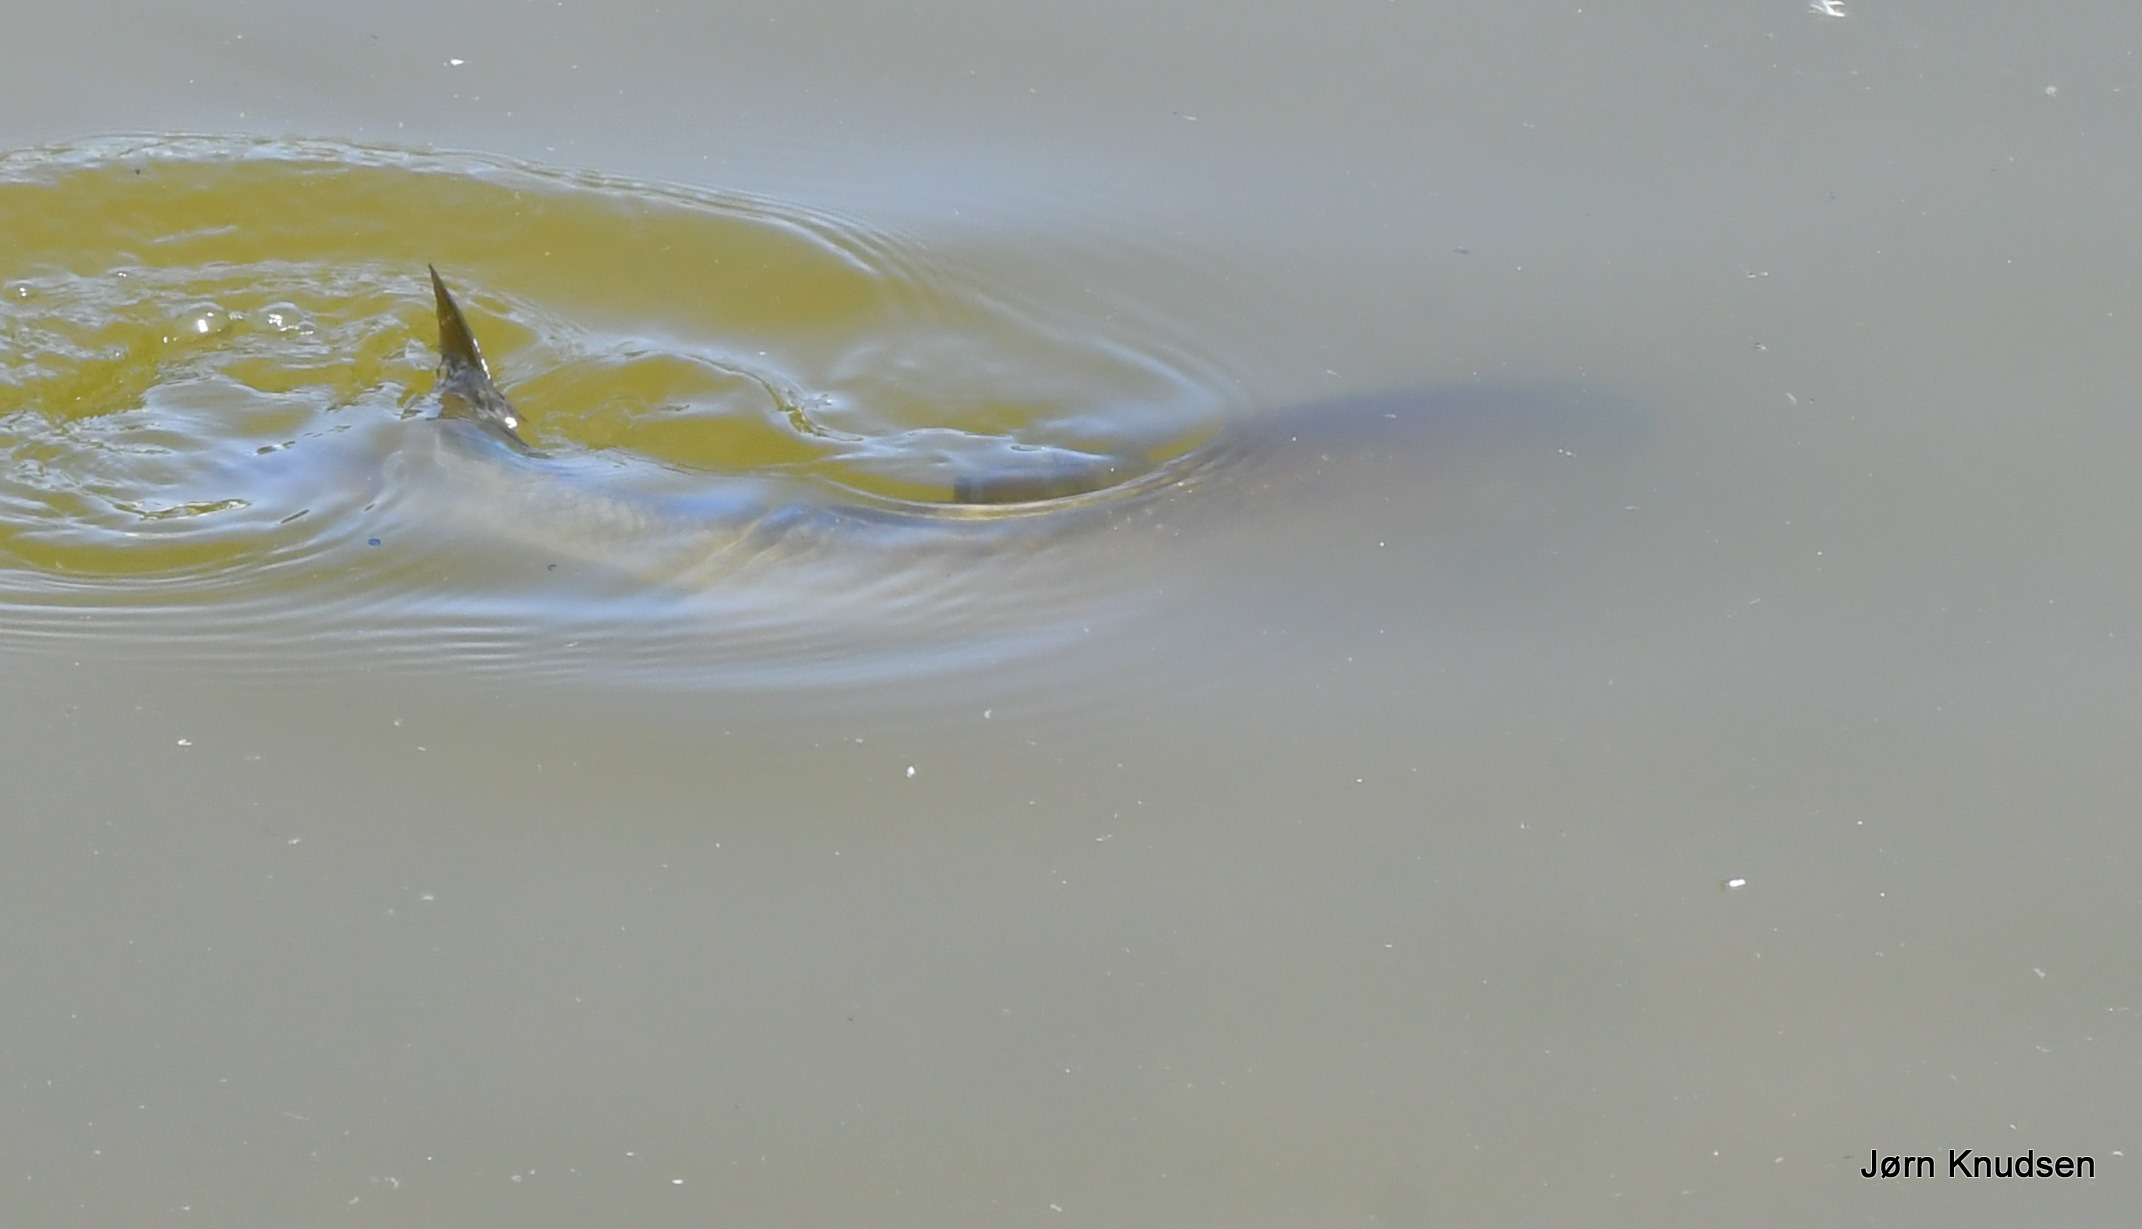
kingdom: Animalia
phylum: Chordata
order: Cypriniformes
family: Cyprinidae
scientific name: Cyprinidae
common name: Karpefamilien
